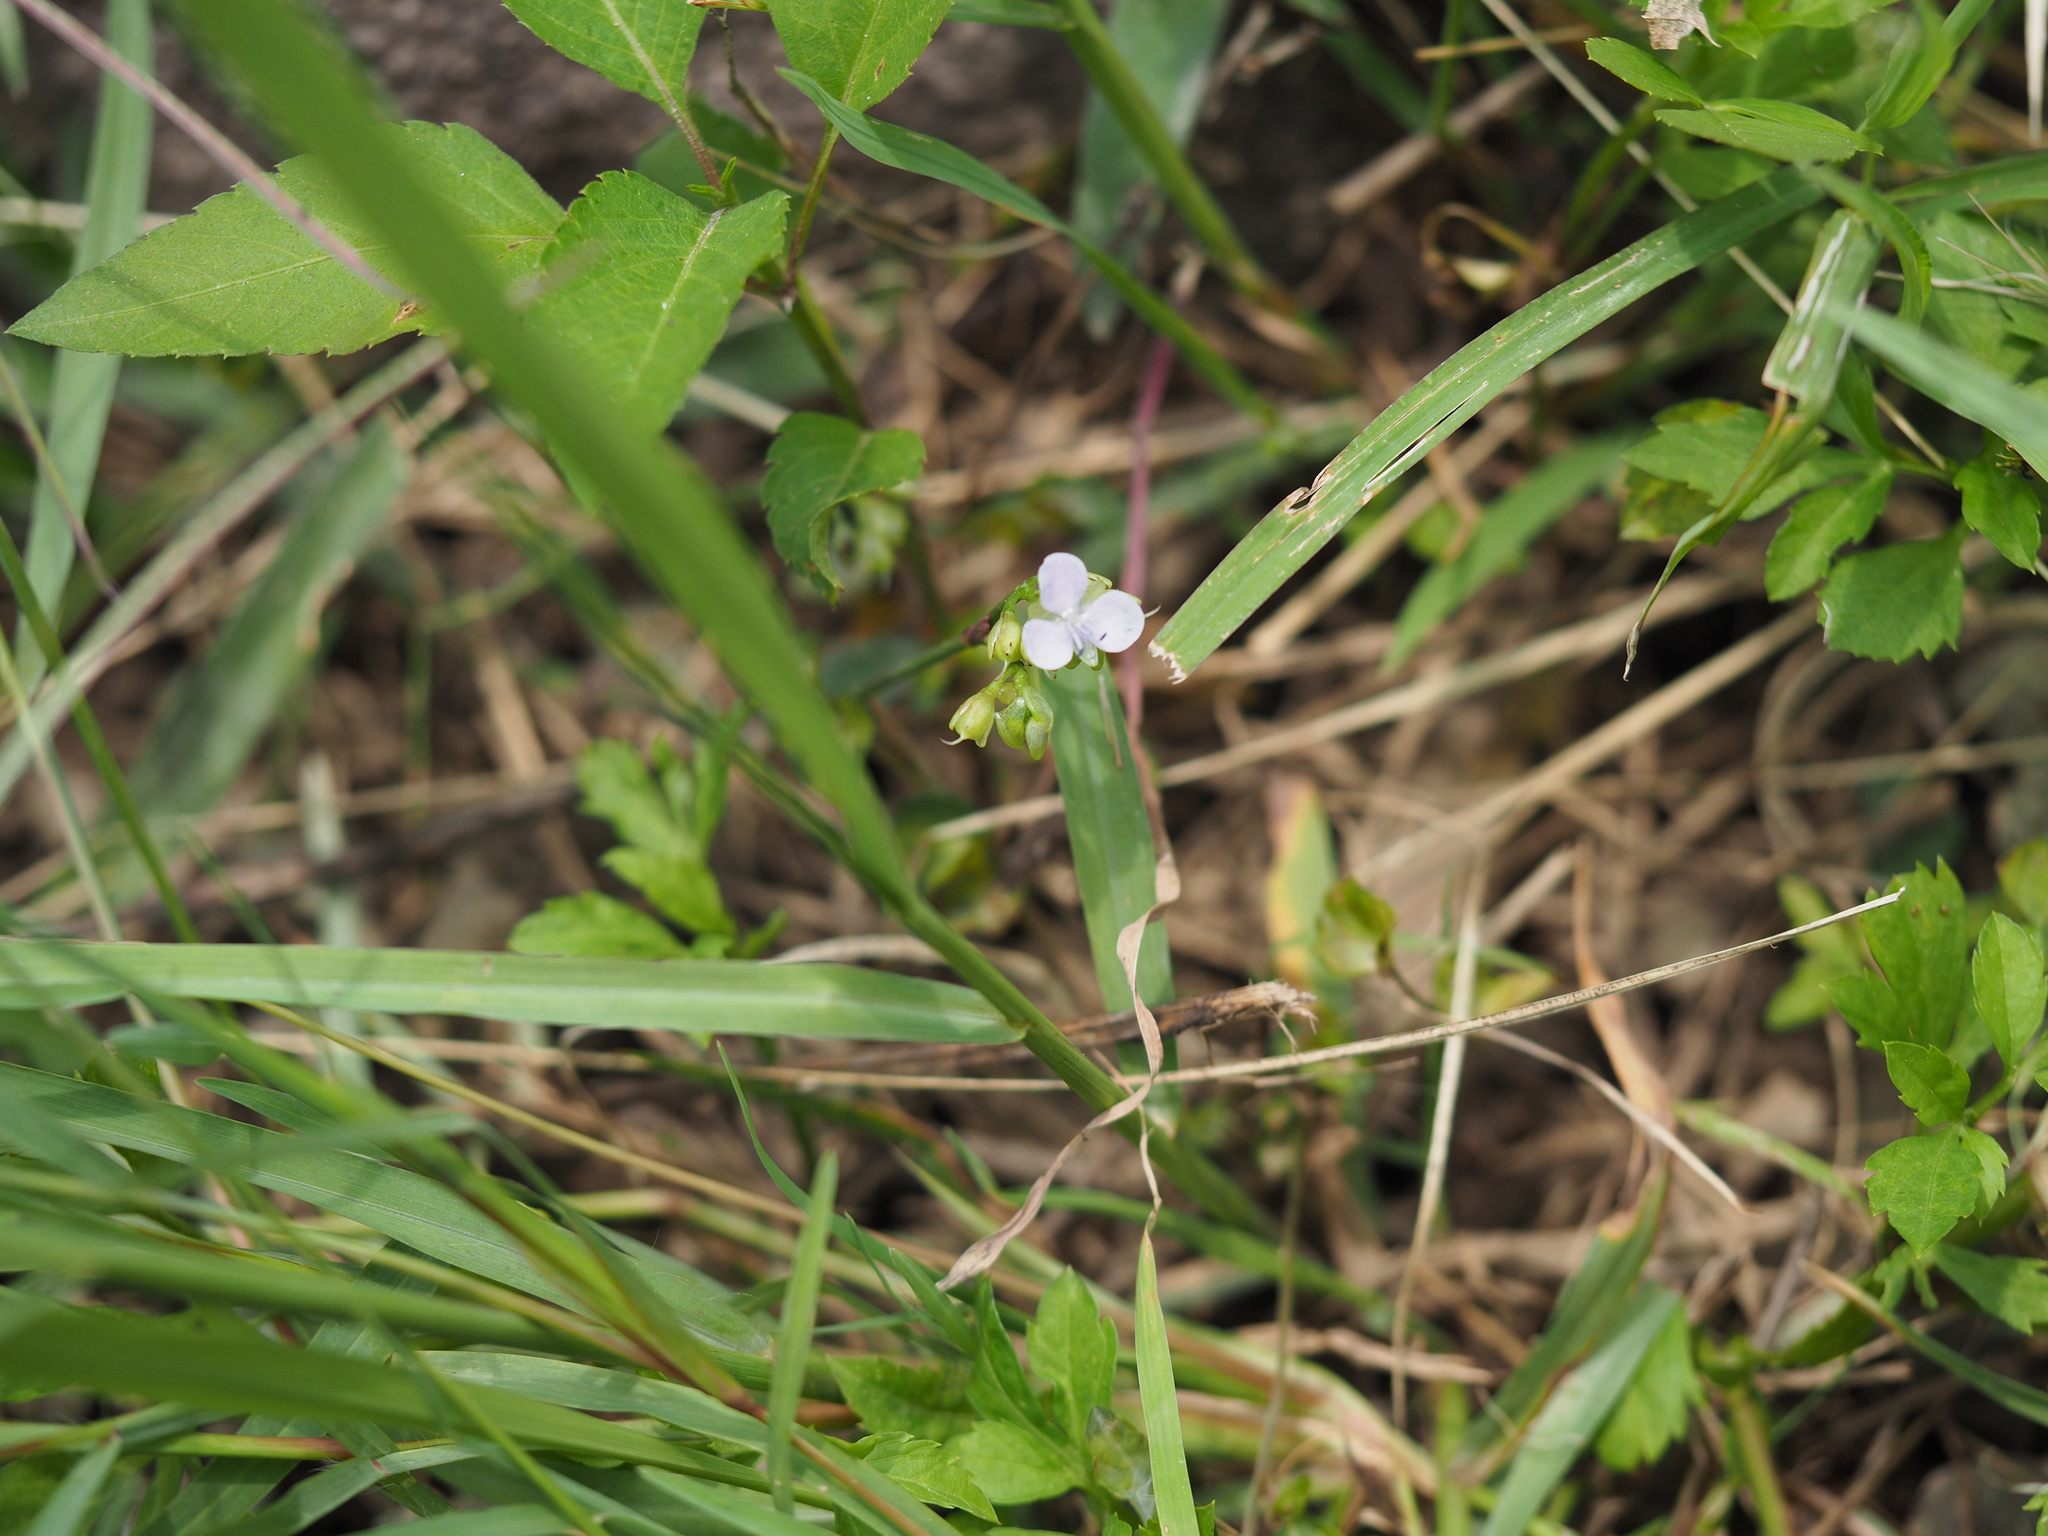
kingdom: Plantae
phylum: Tracheophyta
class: Liliopsida
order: Commelinales
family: Commelinaceae
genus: Murdannia
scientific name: Murdannia loriformis
